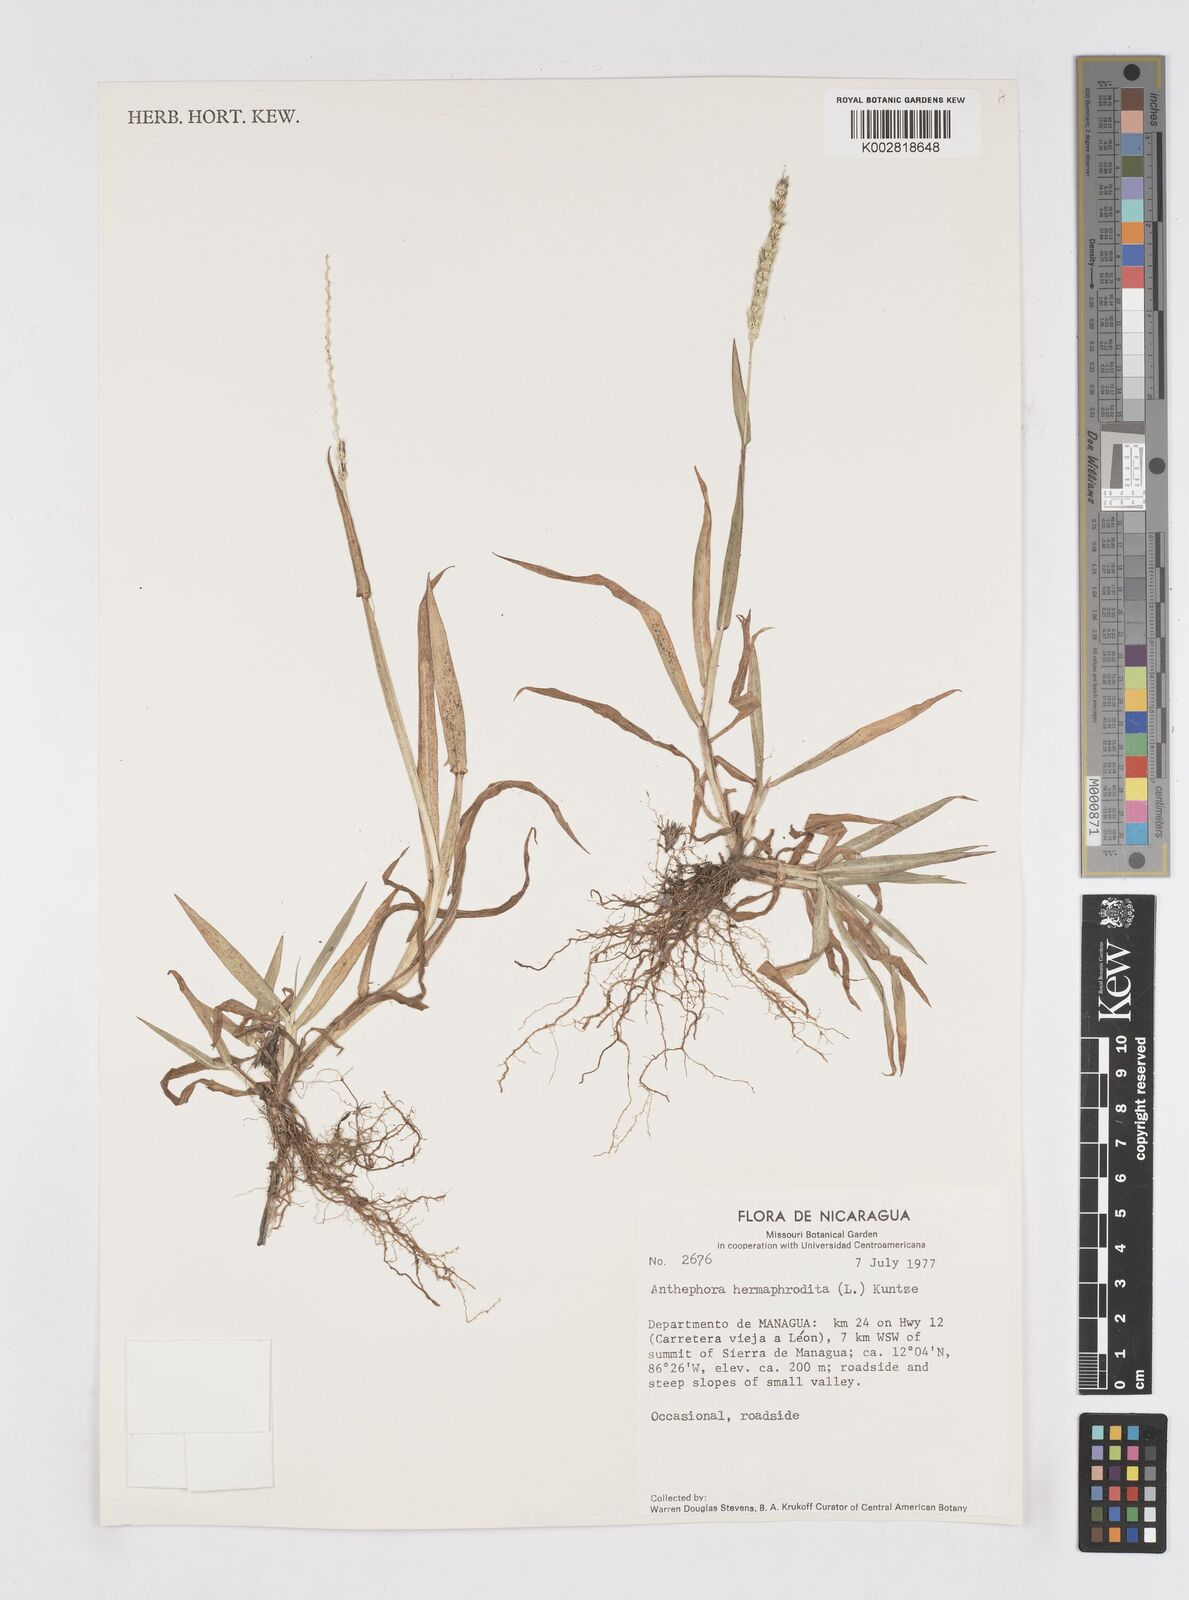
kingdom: Plantae
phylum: Tracheophyta
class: Liliopsida
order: Poales
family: Poaceae
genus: Anthephora
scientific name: Anthephora hermaphrodita
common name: Oldfield grass
